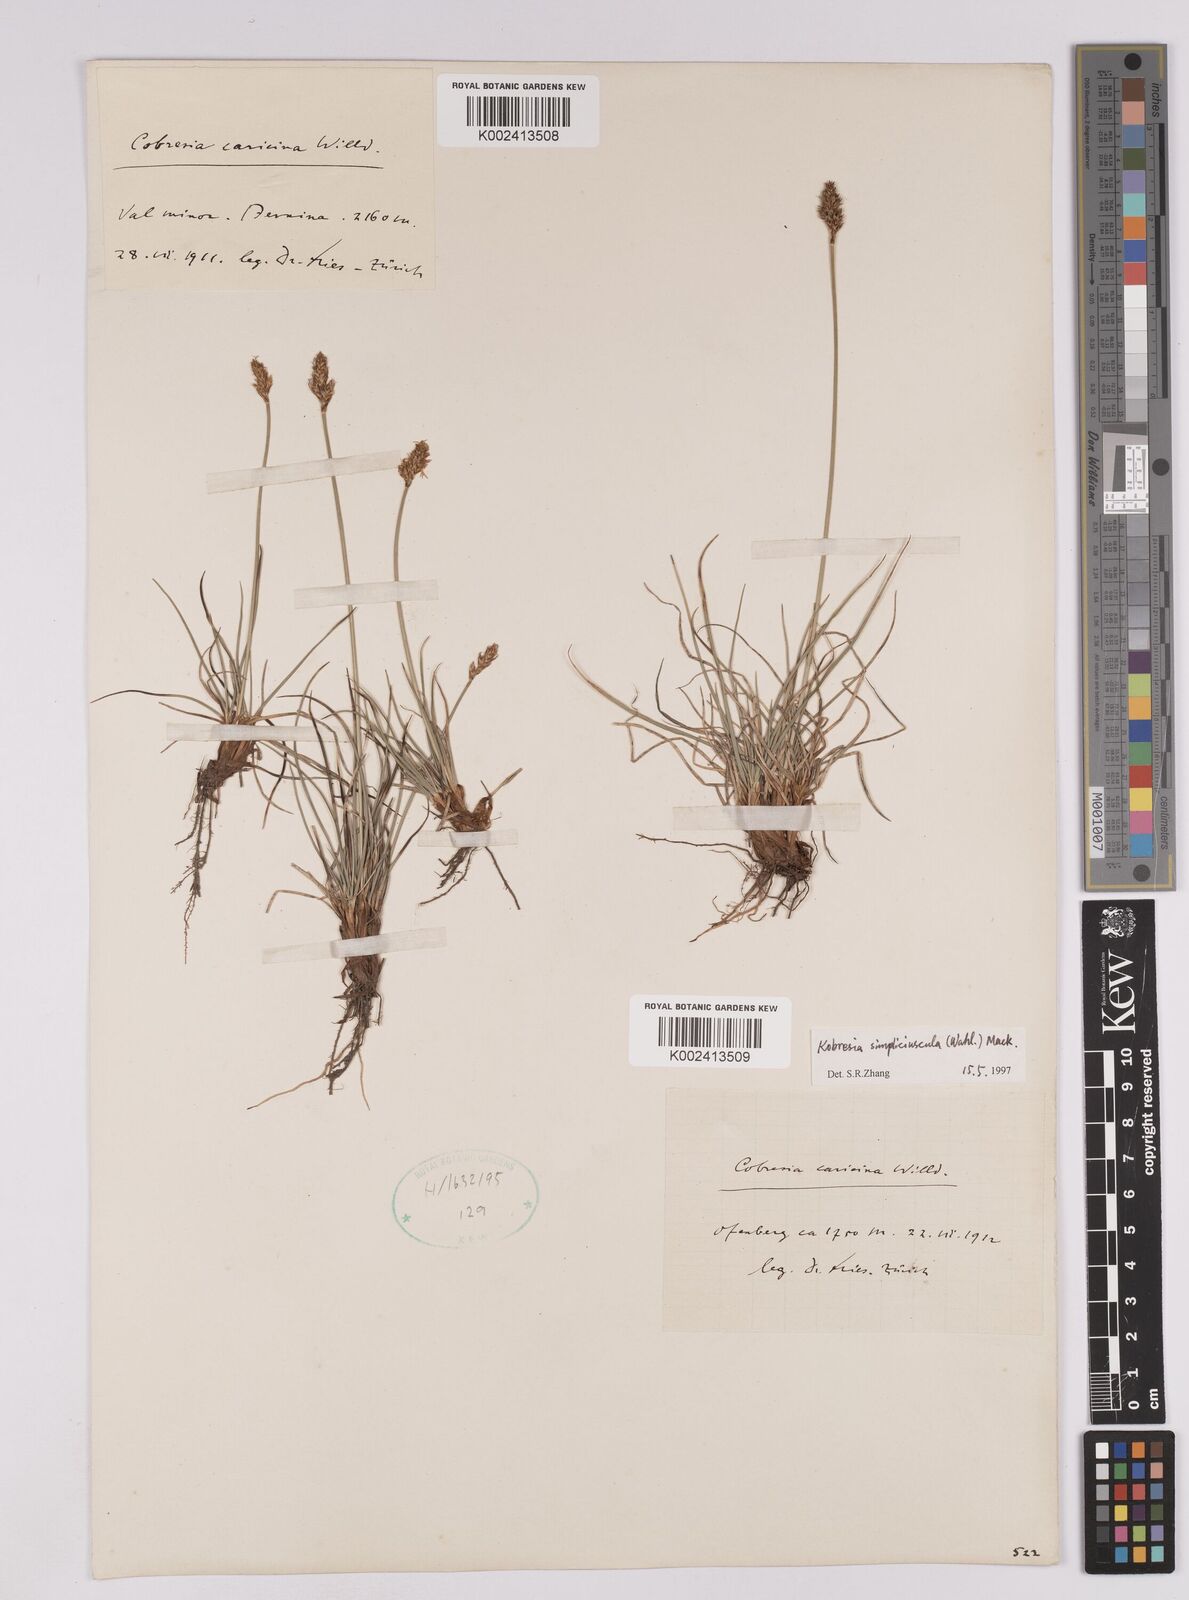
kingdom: Plantae
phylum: Tracheophyta
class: Liliopsida
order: Poales
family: Cyperaceae
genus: Carex
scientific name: Carex simpliciuscula
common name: Simple bog sedge
